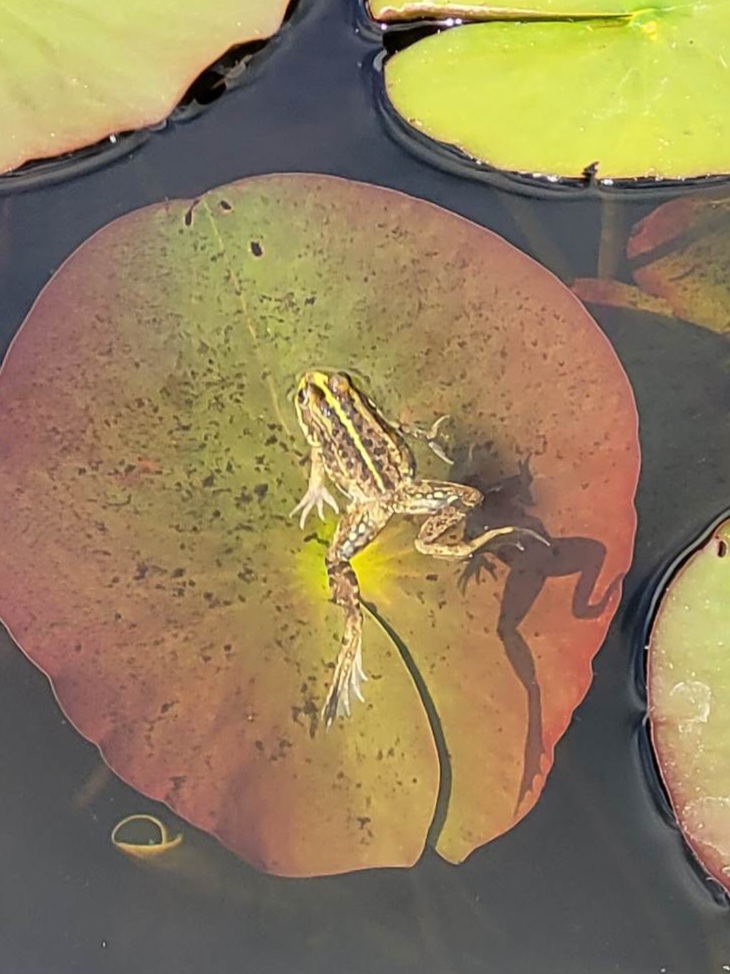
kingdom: Animalia
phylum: Chordata
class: Amphibia
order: Anura
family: Ranidae
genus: Pelophylax
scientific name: Pelophylax lessonae
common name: Grøn frø
